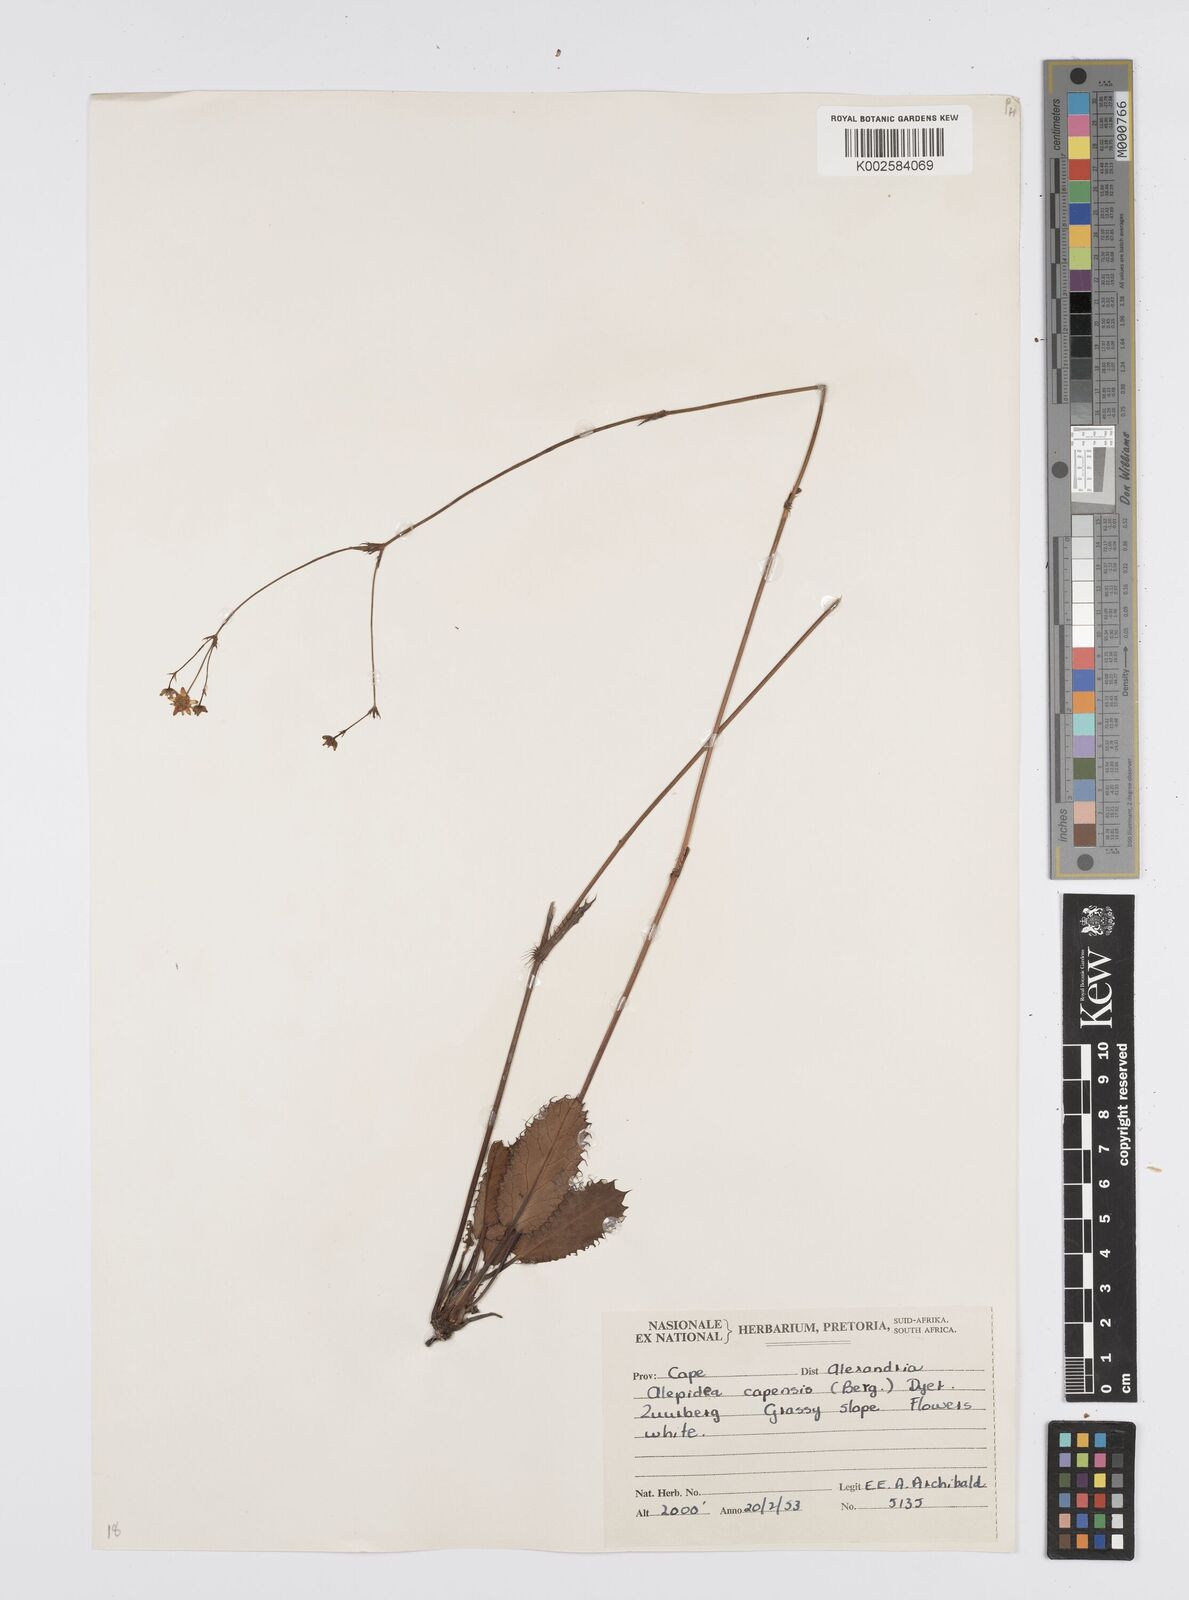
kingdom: Plantae
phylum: Tracheophyta
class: Magnoliopsida
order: Apiales
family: Apiaceae
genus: Alepidea
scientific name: Alepidea capensis
